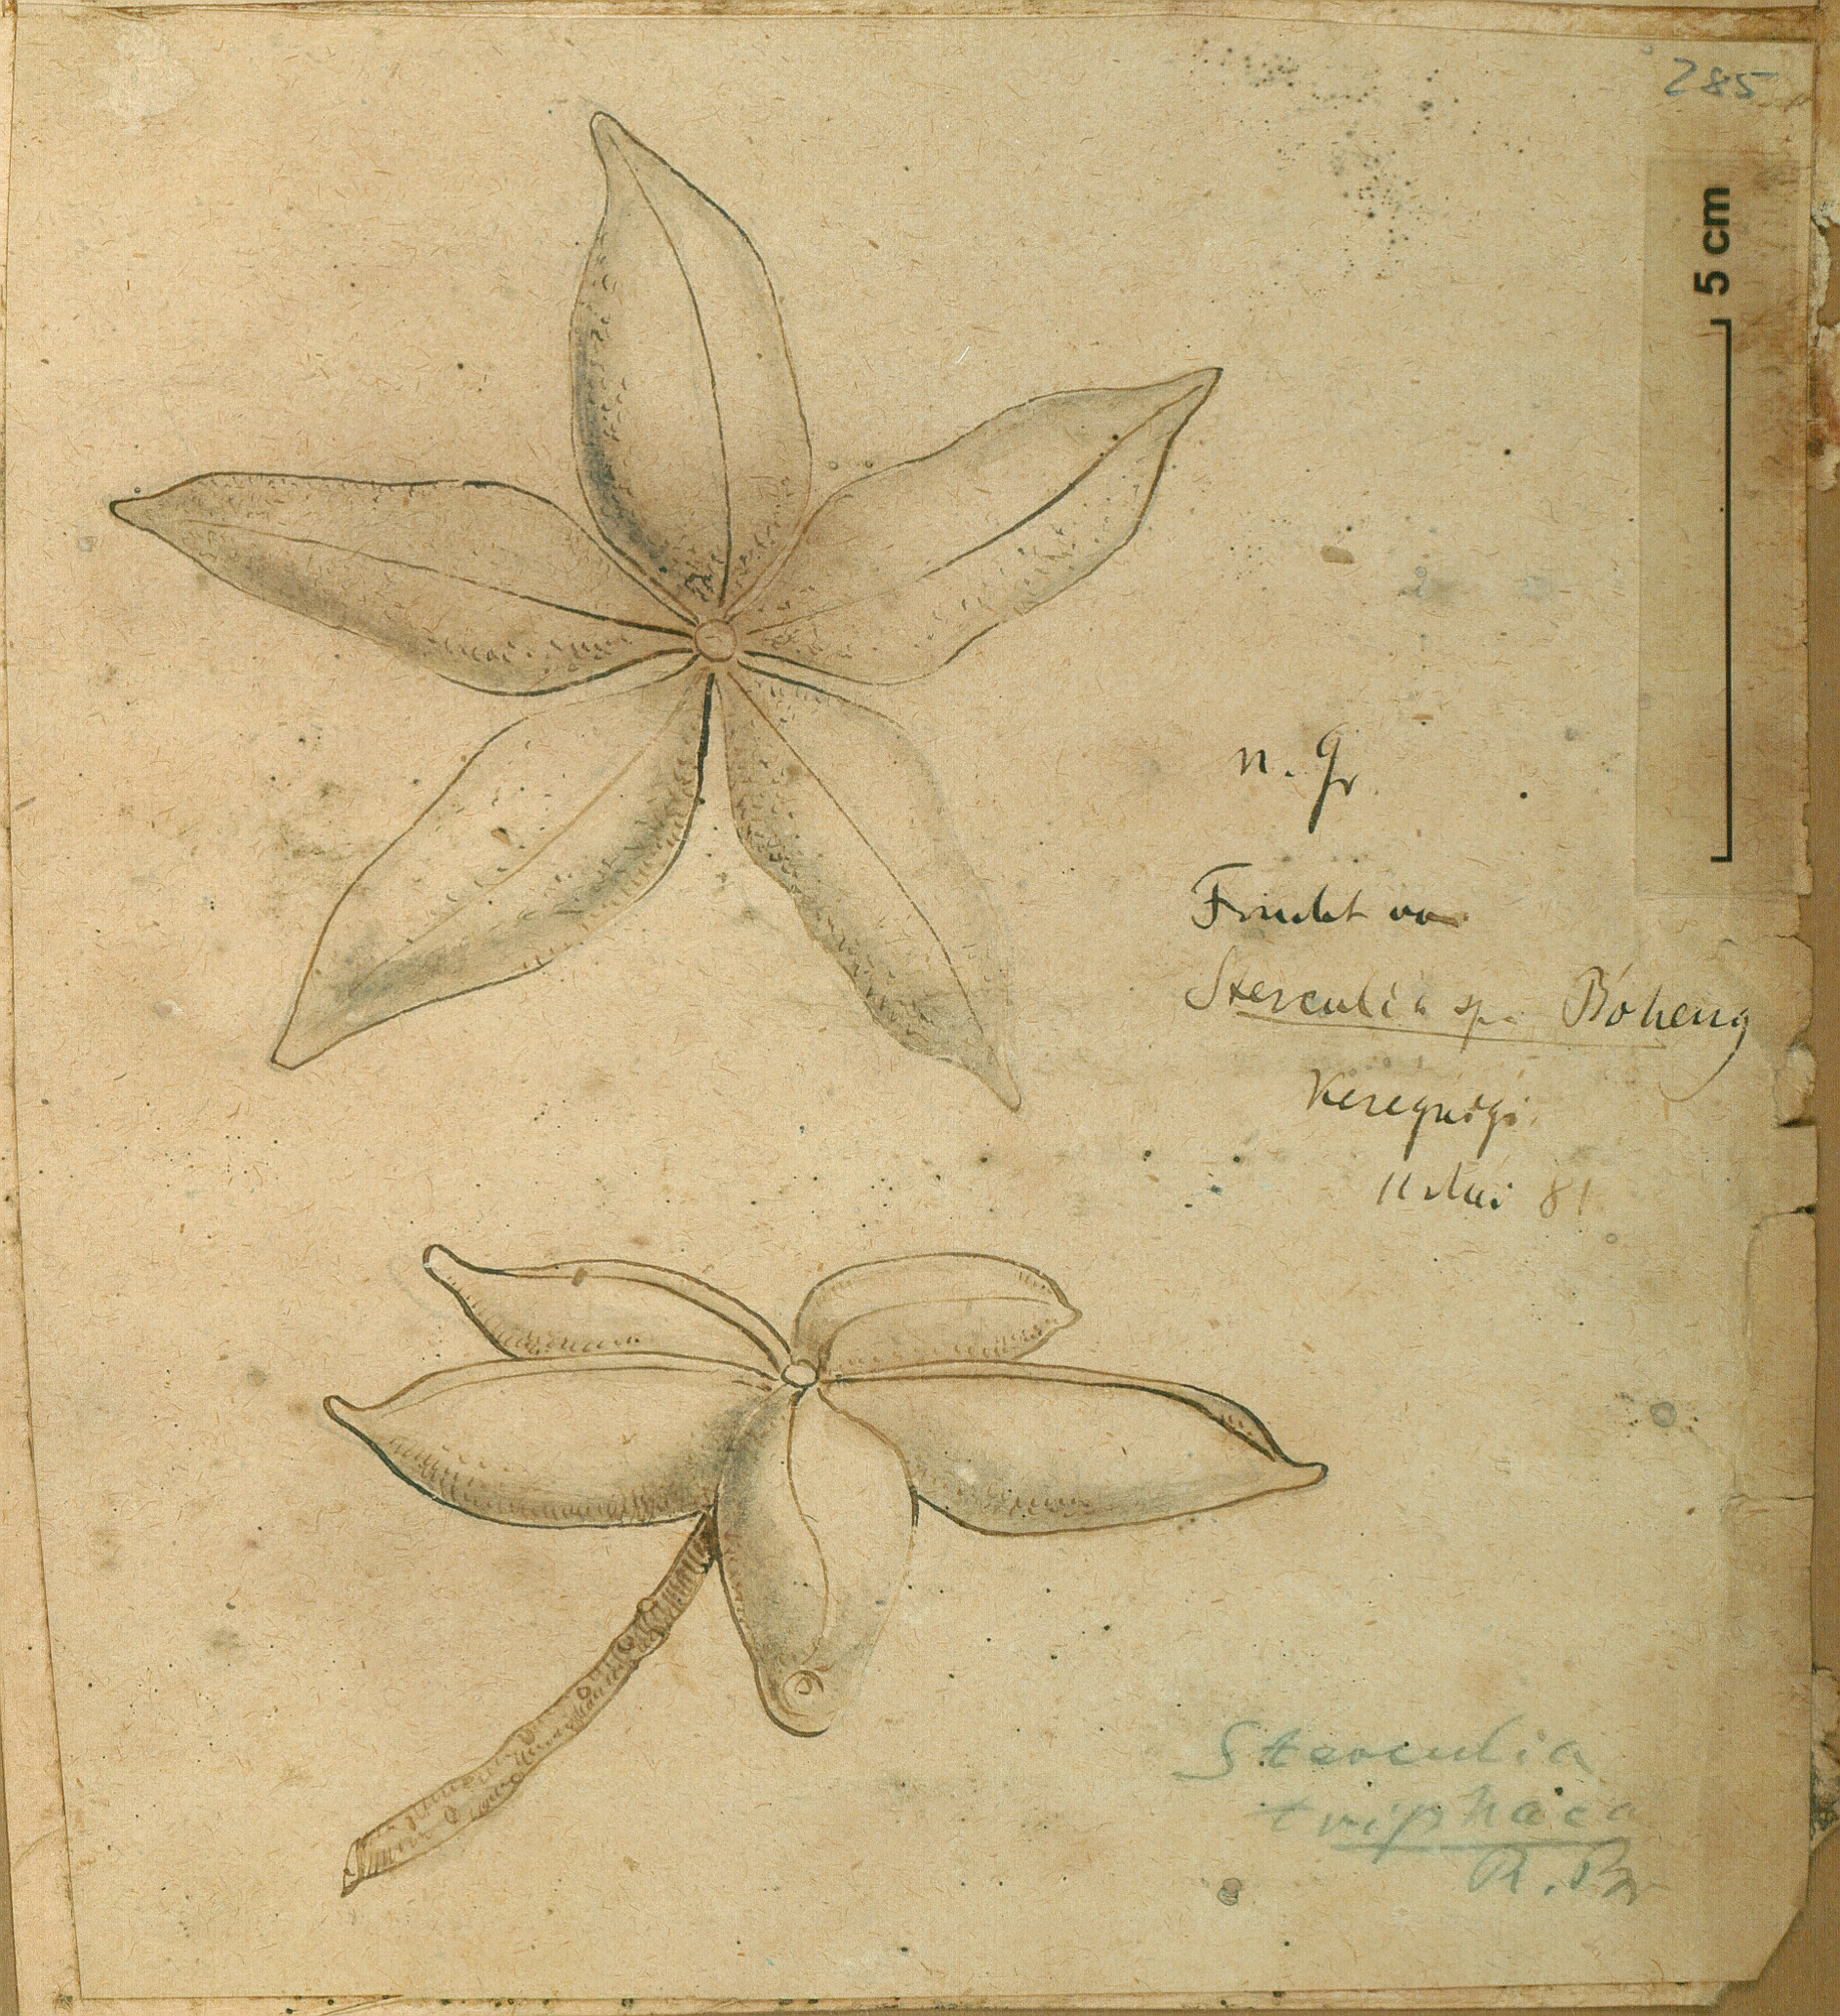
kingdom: Plantae
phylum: Tracheophyta
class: Magnoliopsida
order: Malvales
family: Malvaceae
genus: Sterculia
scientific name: Sterculia africana
